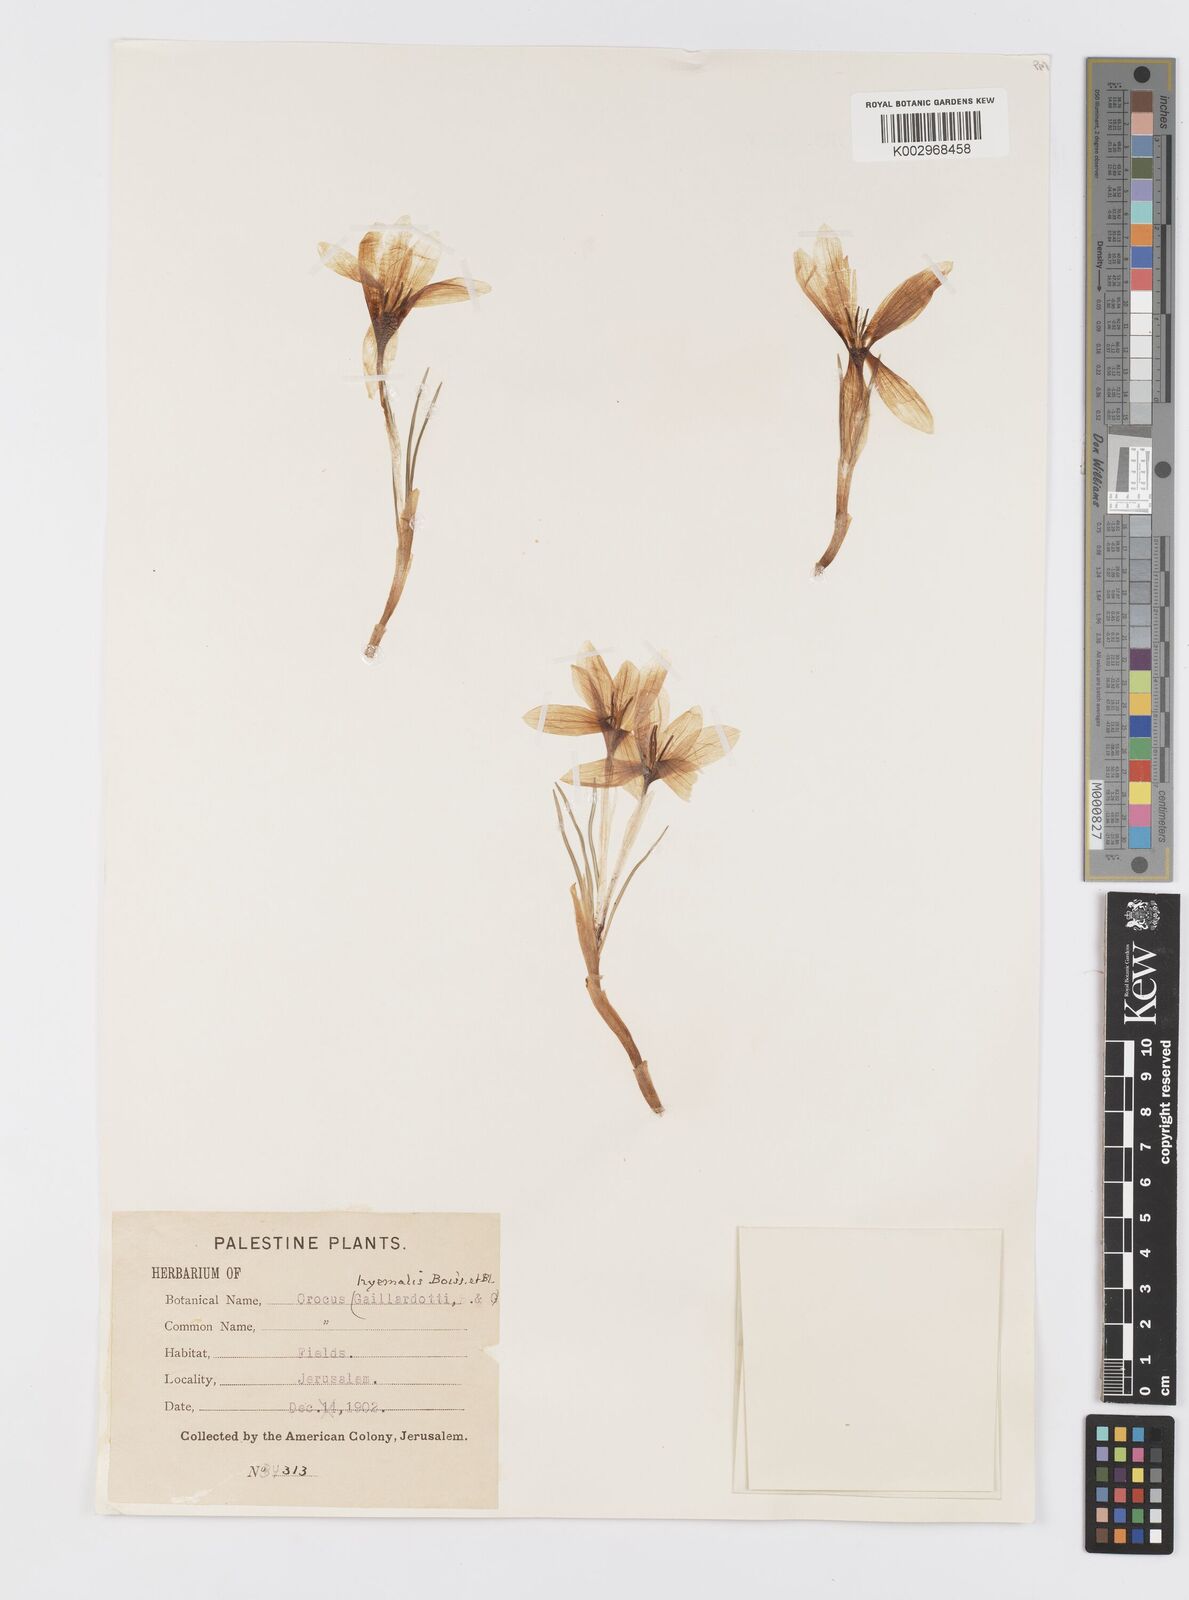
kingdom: Plantae
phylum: Tracheophyta
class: Liliopsida
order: Asparagales
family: Iridaceae
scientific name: Iridaceae
